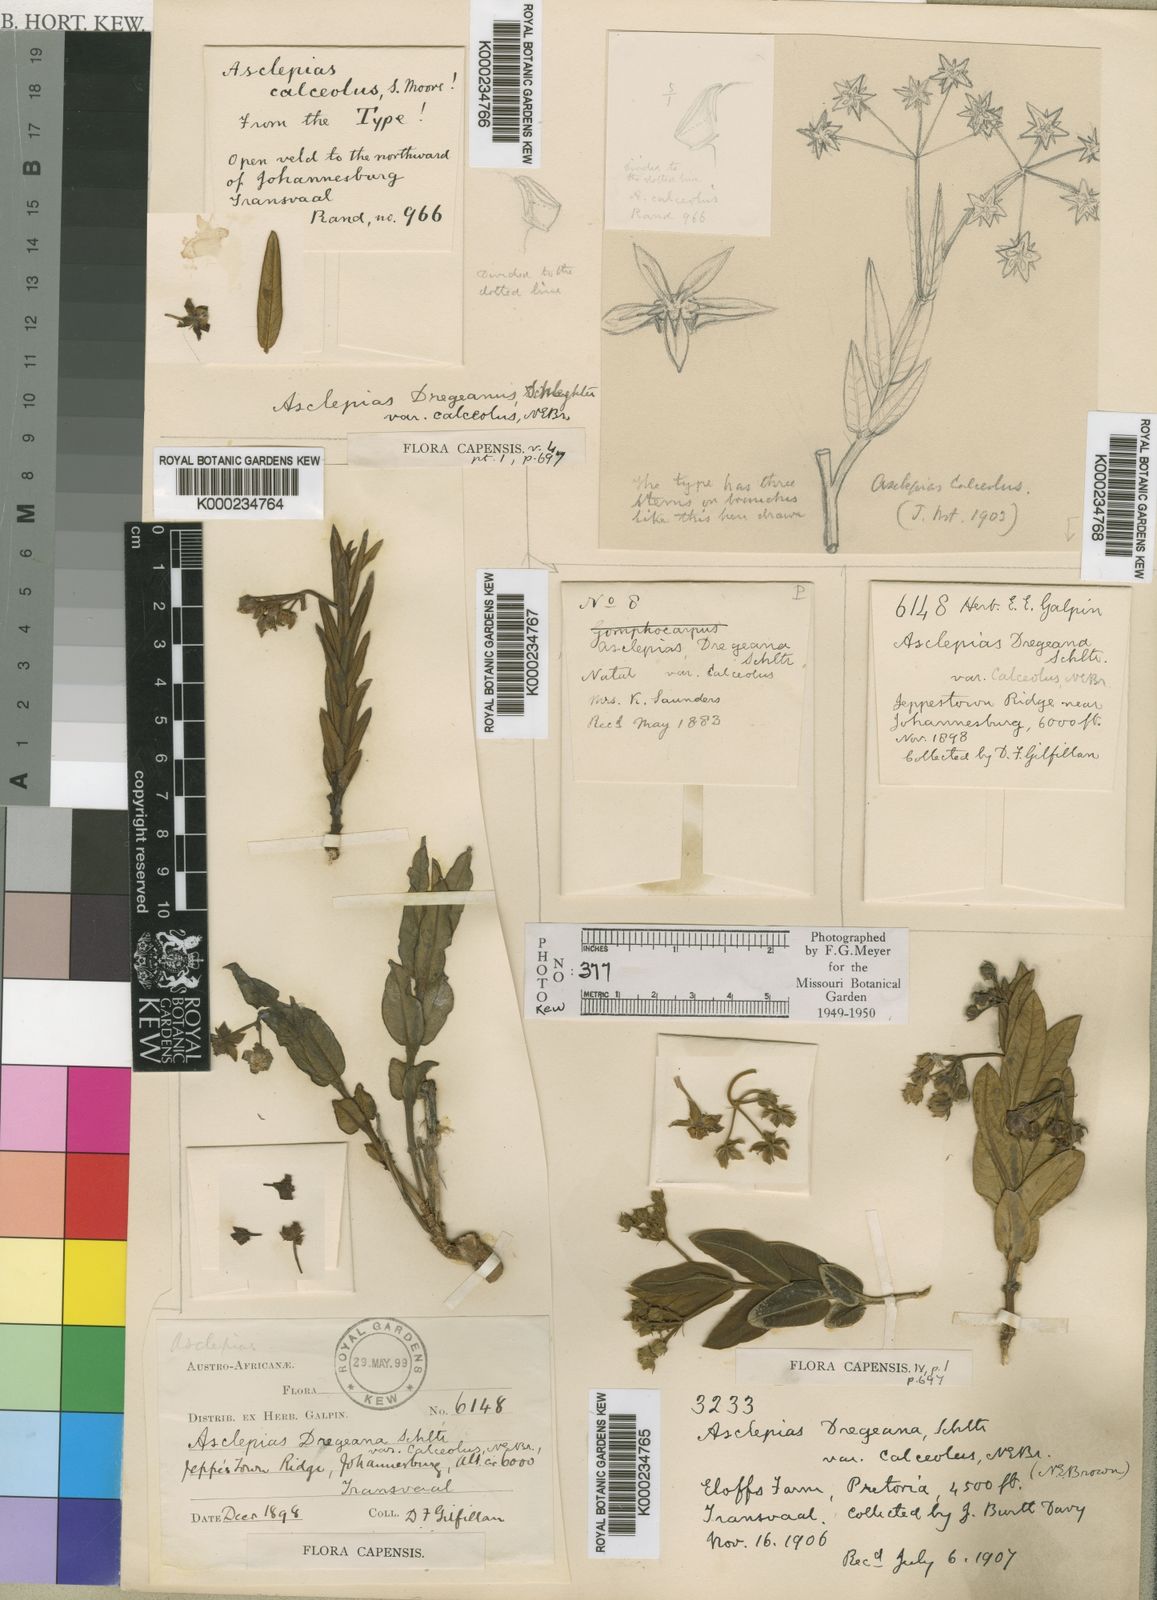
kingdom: Plantae
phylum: Tracheophyta
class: Magnoliopsida
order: Gentianales
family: Apocynaceae
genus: Asclepias
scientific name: Asclepias fulva
